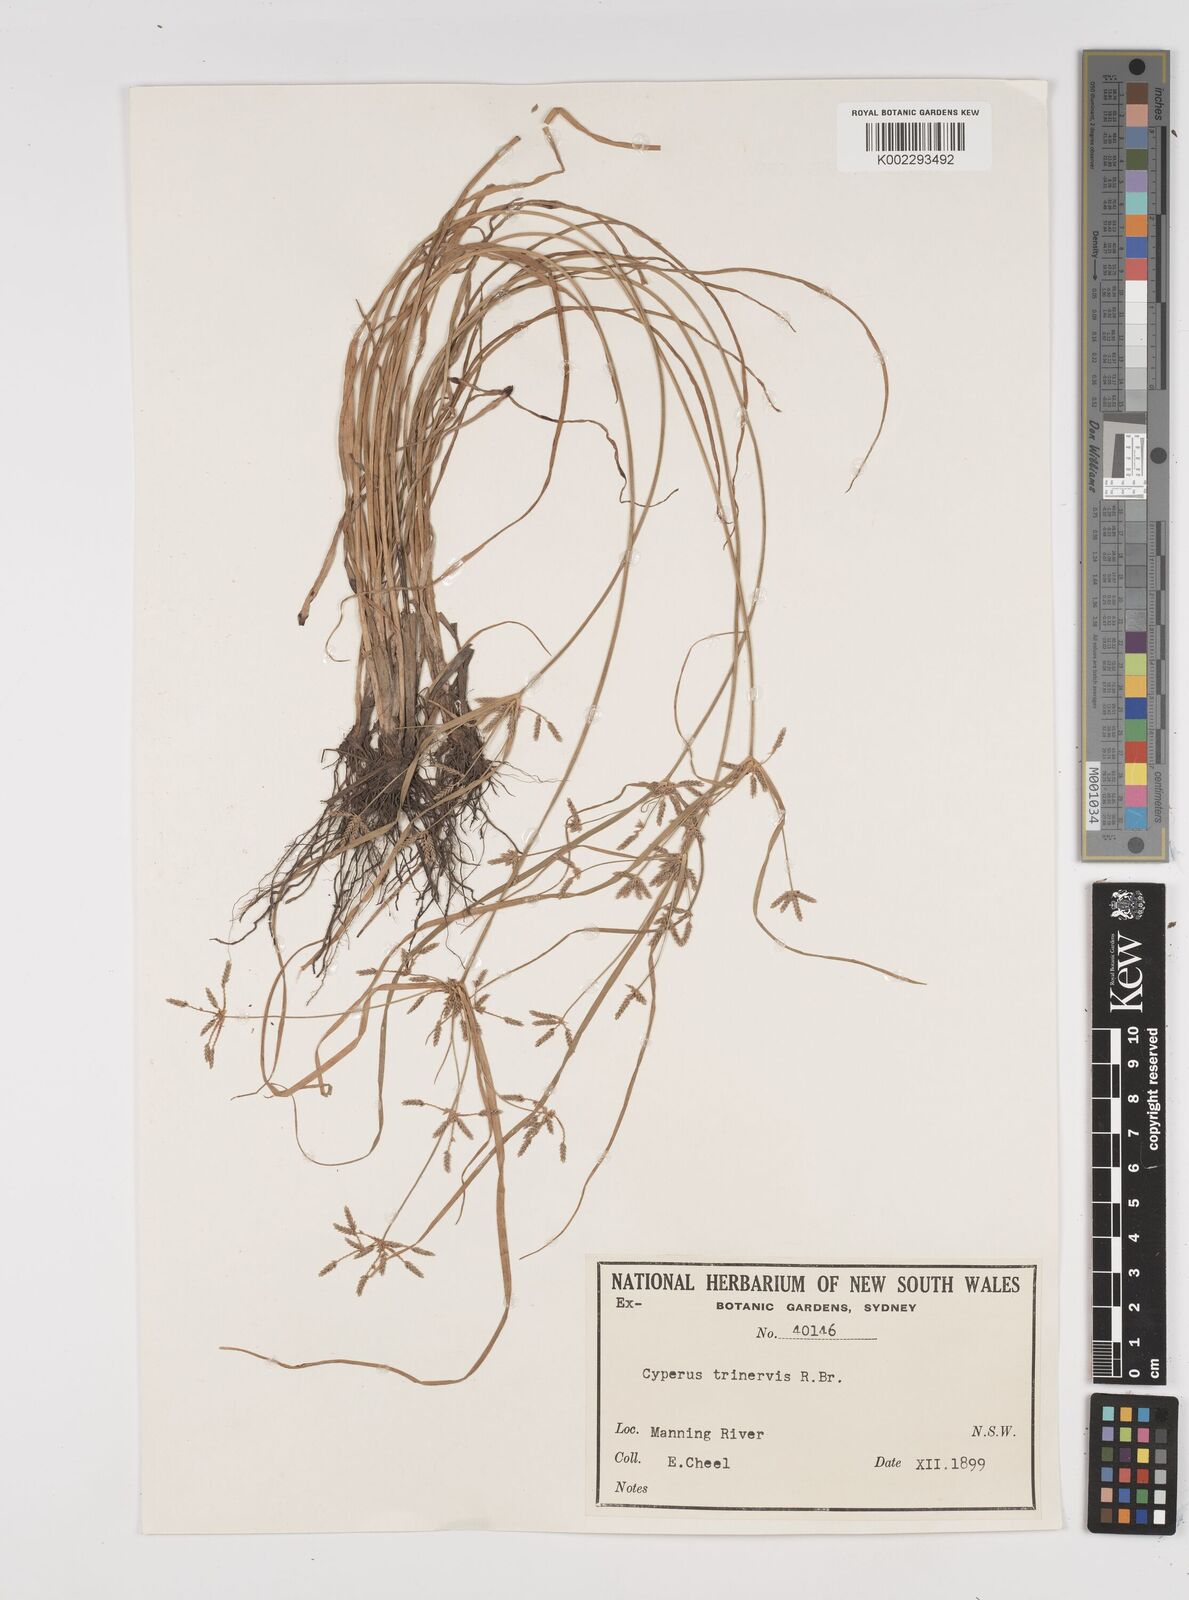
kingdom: Plantae
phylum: Tracheophyta
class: Liliopsida
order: Poales
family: Cyperaceae
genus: Cyperus
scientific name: Cyperus trinervis
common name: Australian flatsedge
